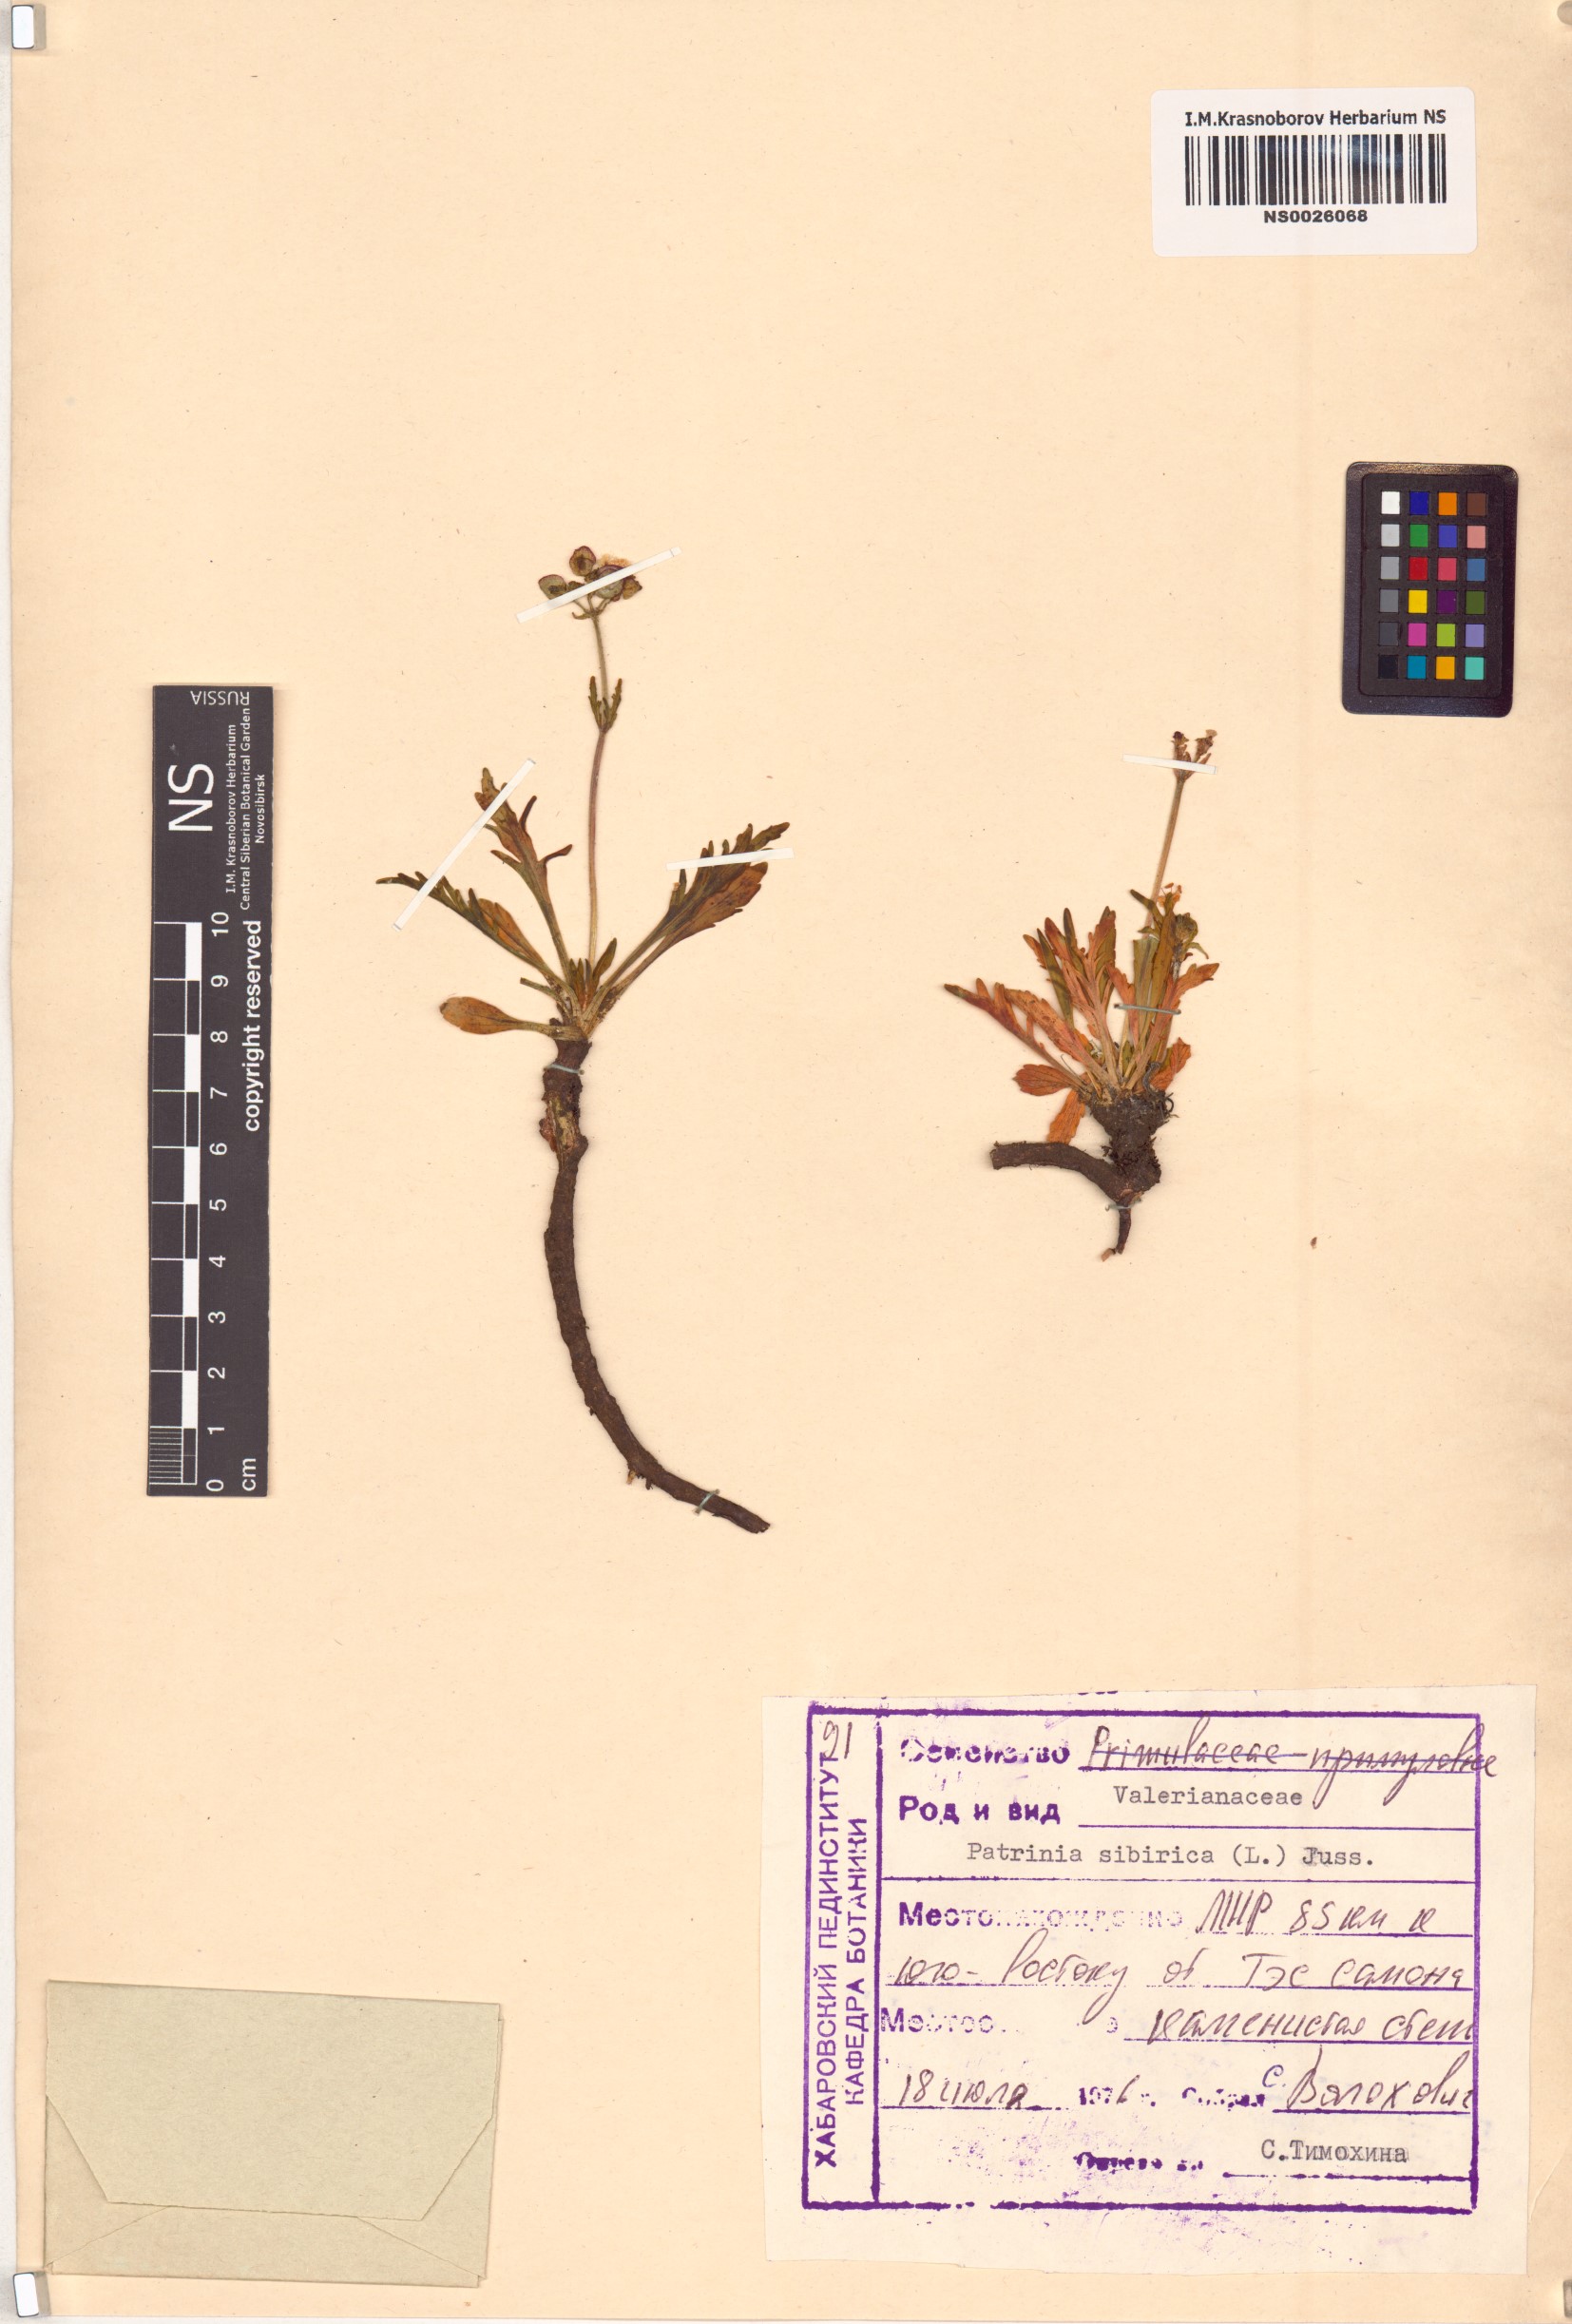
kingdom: Plantae
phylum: Tracheophyta
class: Magnoliopsida
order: Dipsacales
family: Caprifoliaceae
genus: Patrinia
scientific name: Patrinia sibirica
